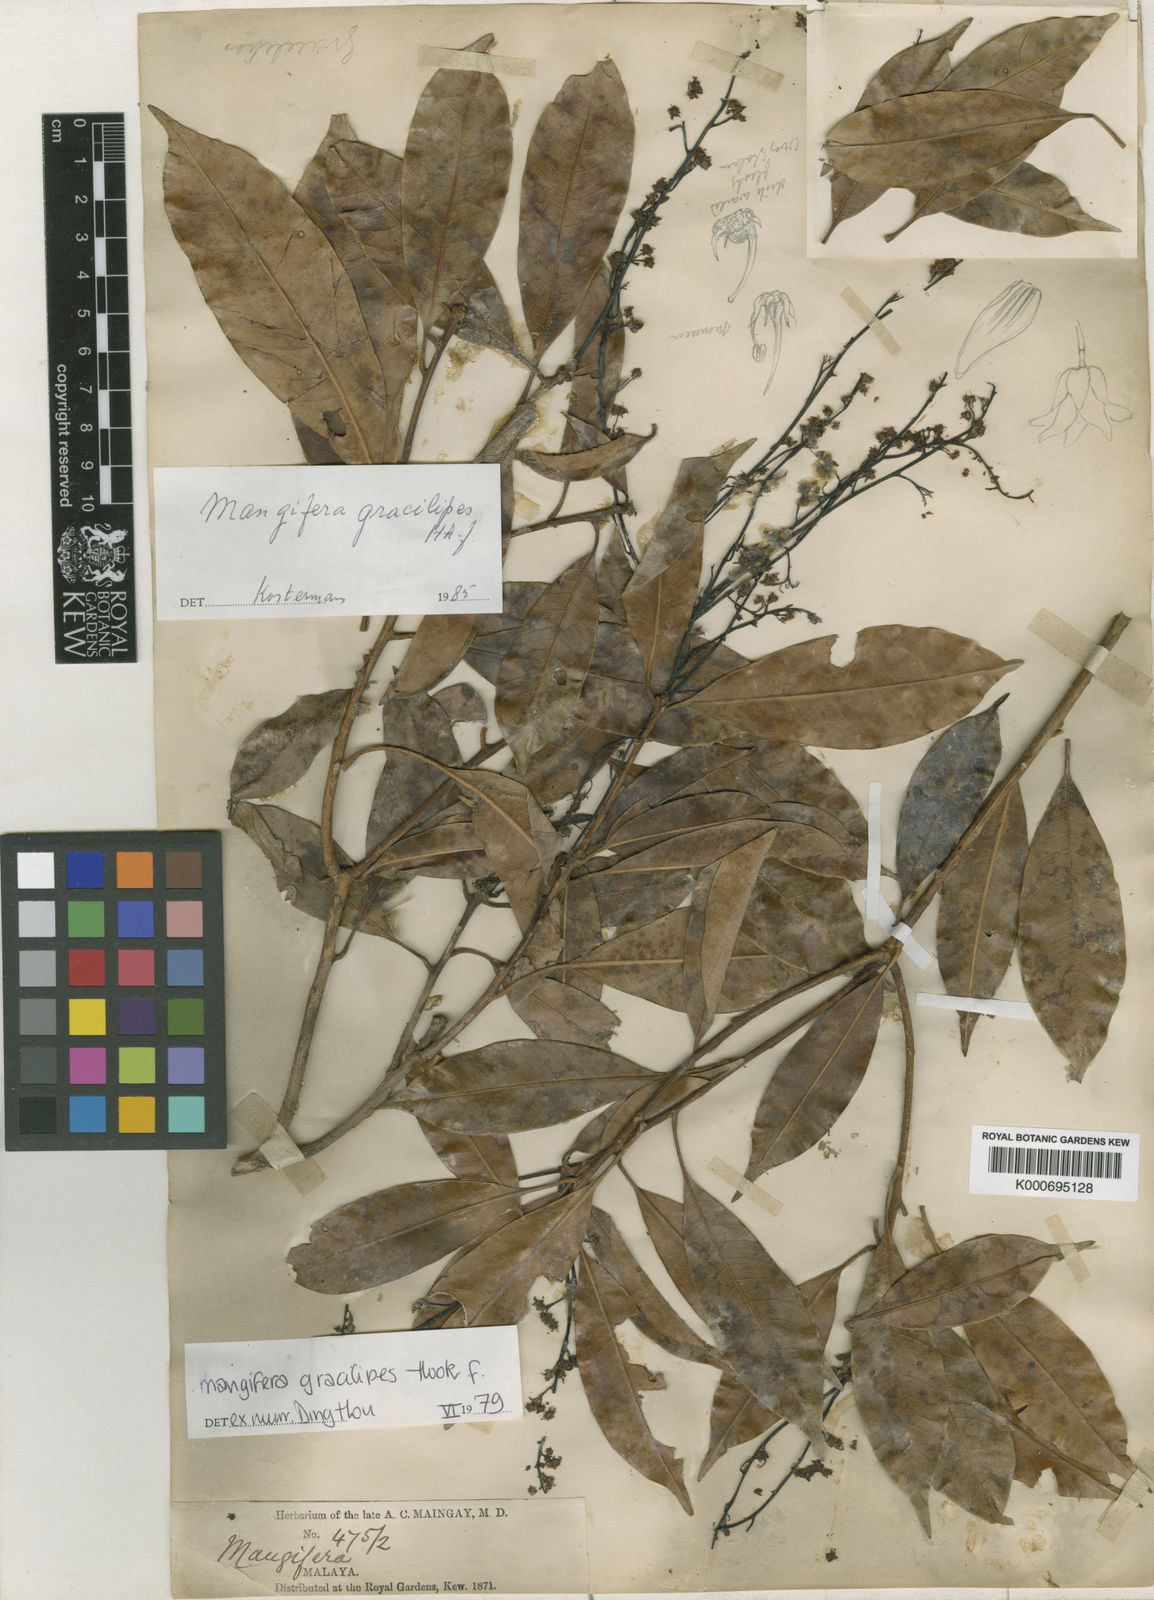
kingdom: Plantae
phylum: Tracheophyta
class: Magnoliopsida
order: Sapindales
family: Anacardiaceae
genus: Mangifera
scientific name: Mangifera gracilipes
